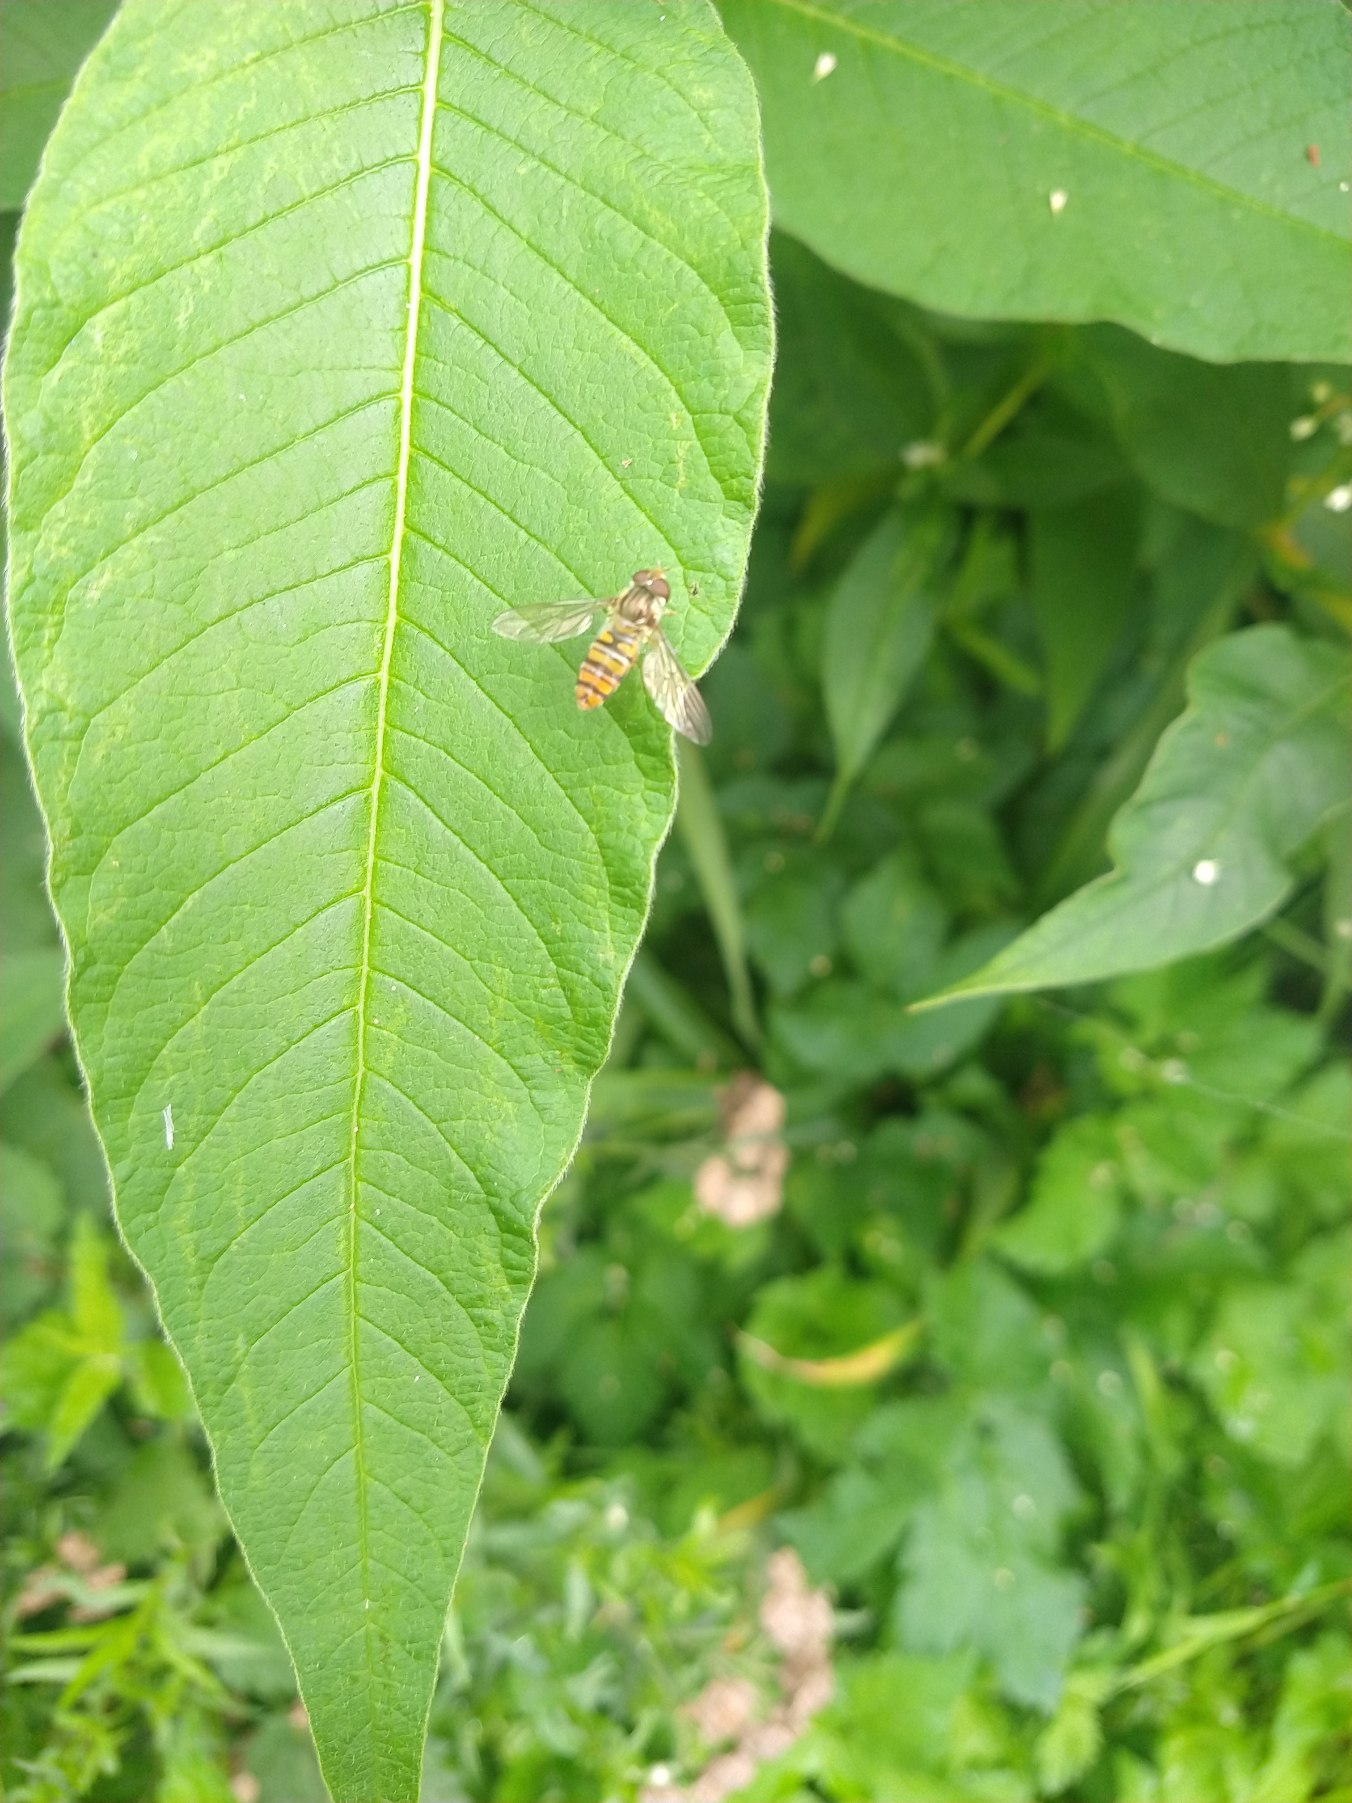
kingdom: Animalia
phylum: Arthropoda
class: Insecta
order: Diptera
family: Syrphidae
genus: Episyrphus
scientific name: Episyrphus balteatus
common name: Dobbeltbåndet svirreflue
